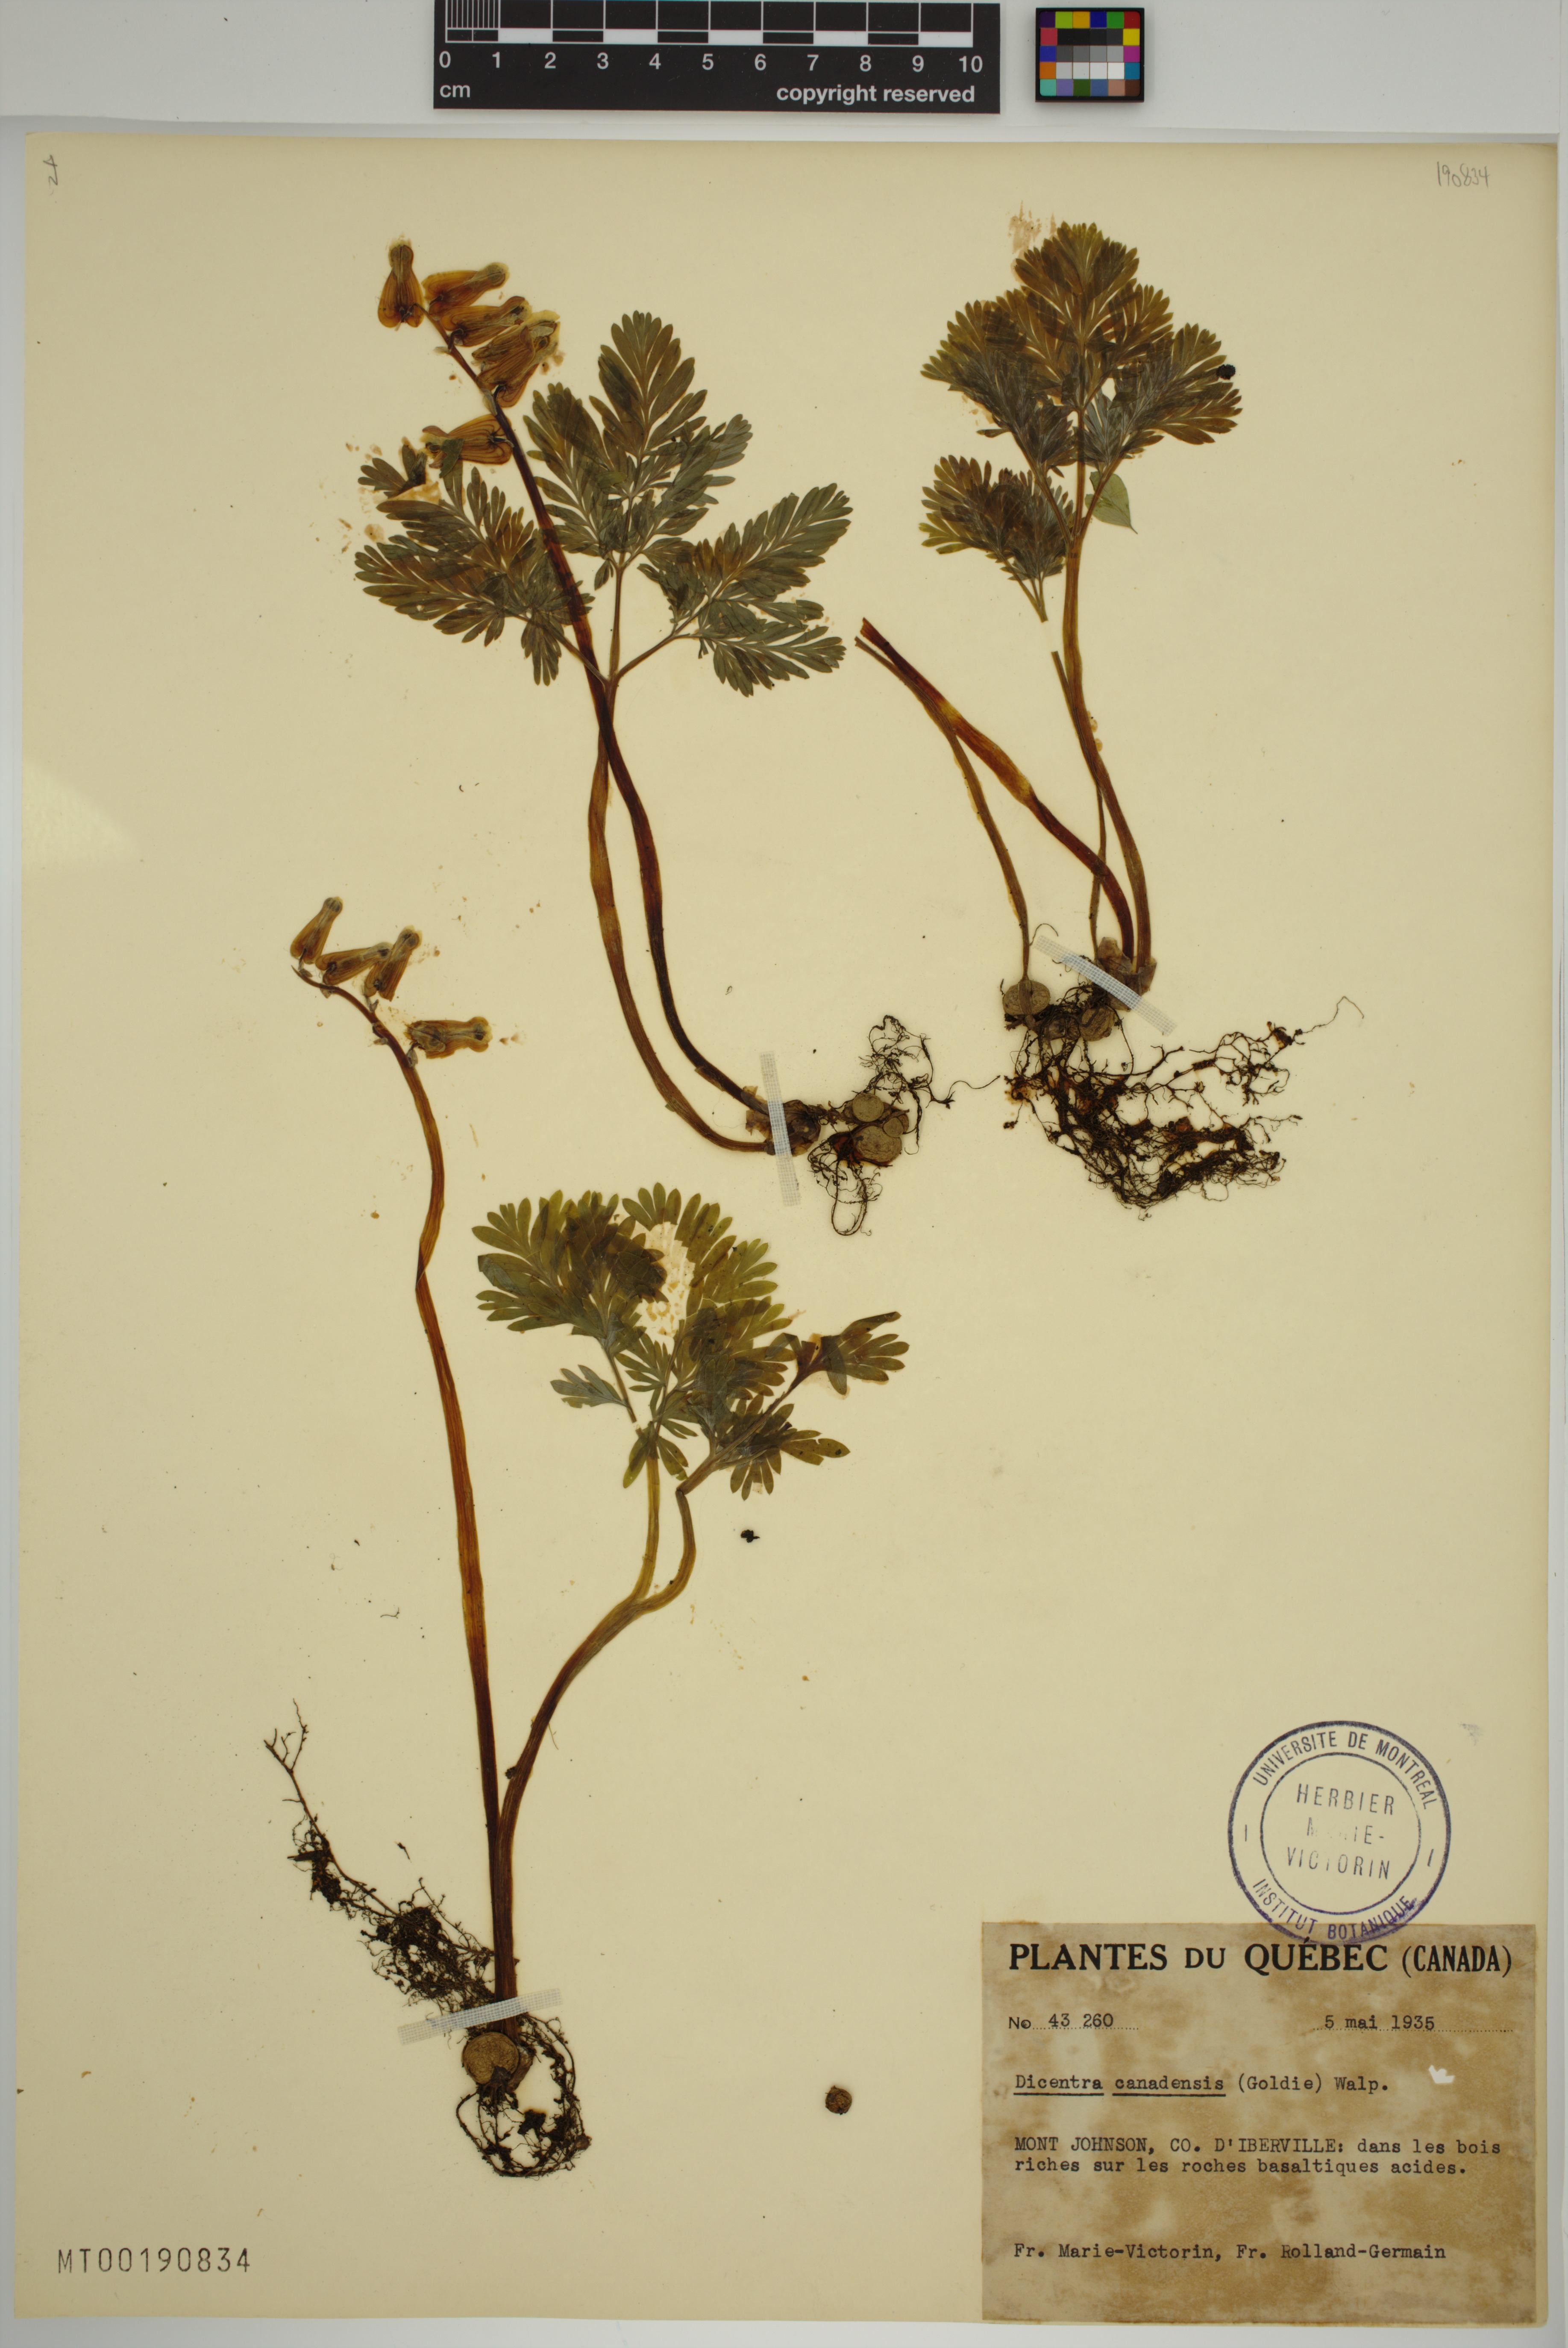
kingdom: Plantae
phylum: Tracheophyta
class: Magnoliopsida
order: Ranunculales
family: Papaveraceae
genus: Dicentra
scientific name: Dicentra canadensis
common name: Squirrel-corn
